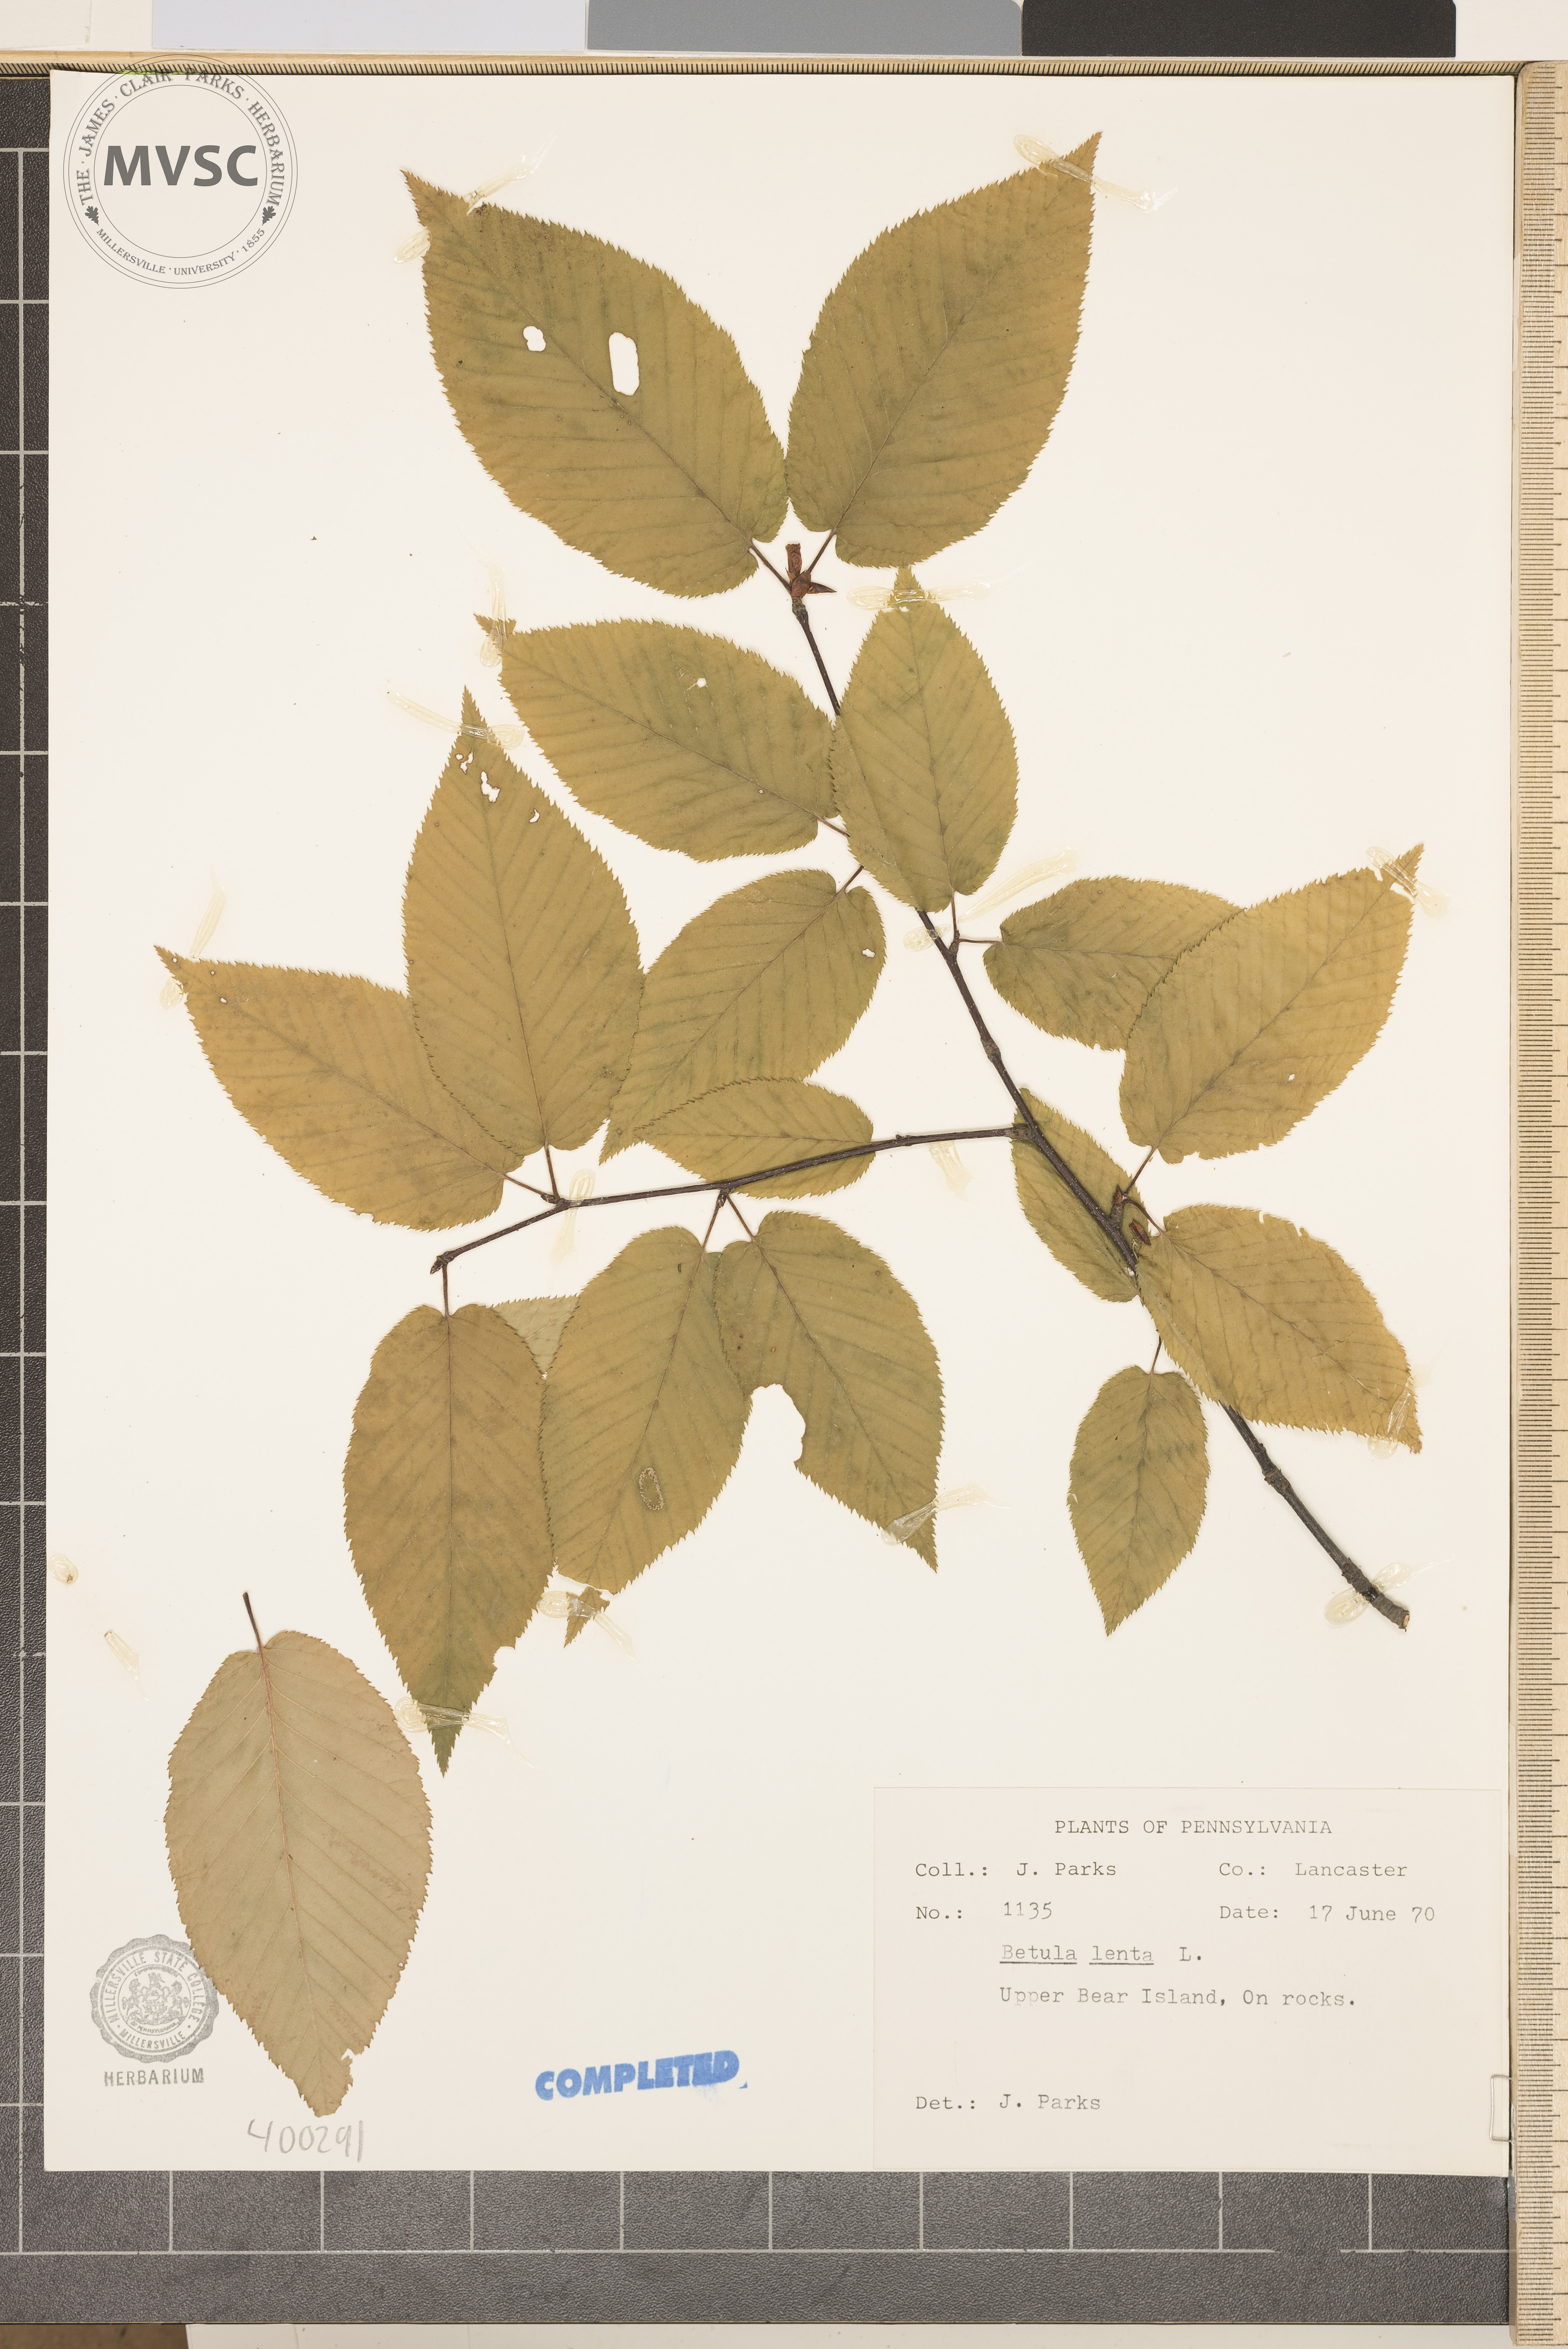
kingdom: Plantae
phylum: Tracheophyta
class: Magnoliopsida
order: Fagales
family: Betulaceae
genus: Betula
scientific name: Betula lenta
